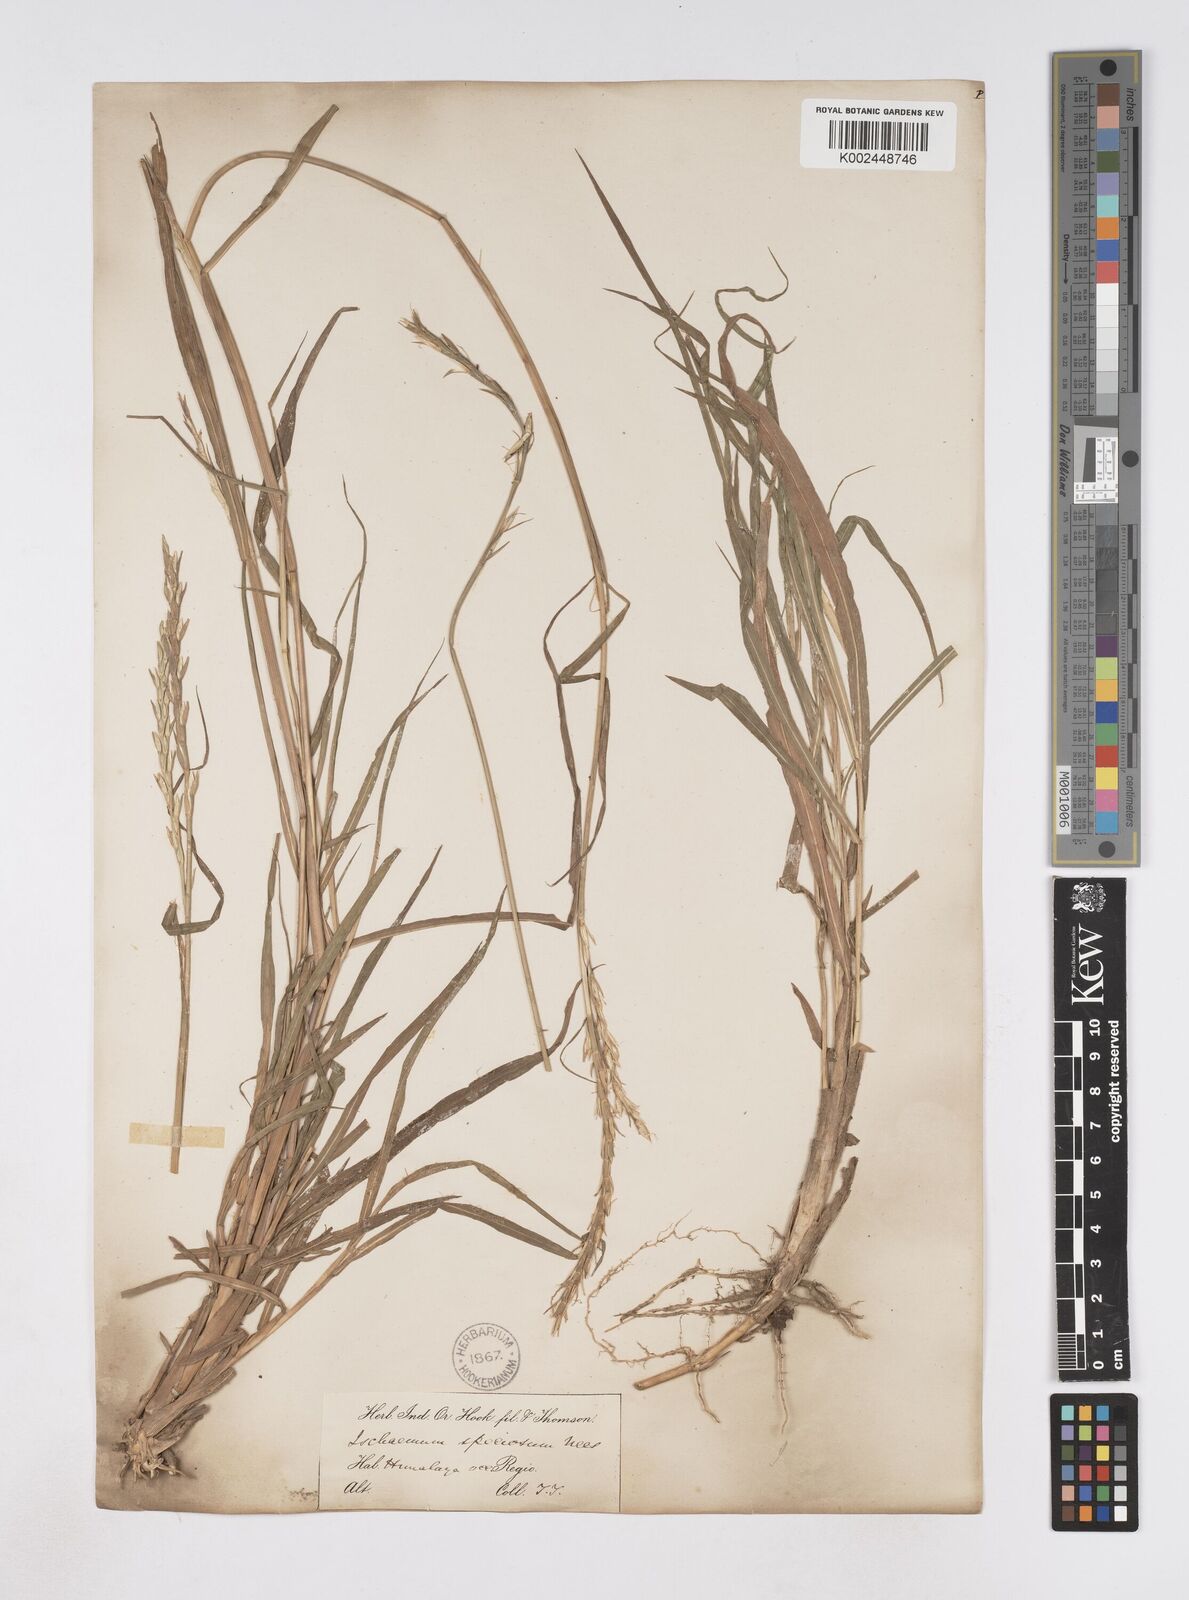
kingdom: Plantae
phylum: Tracheophyta
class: Liliopsida
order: Poales
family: Poaceae
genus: Phacelurus
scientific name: Phacelurus speciosus
